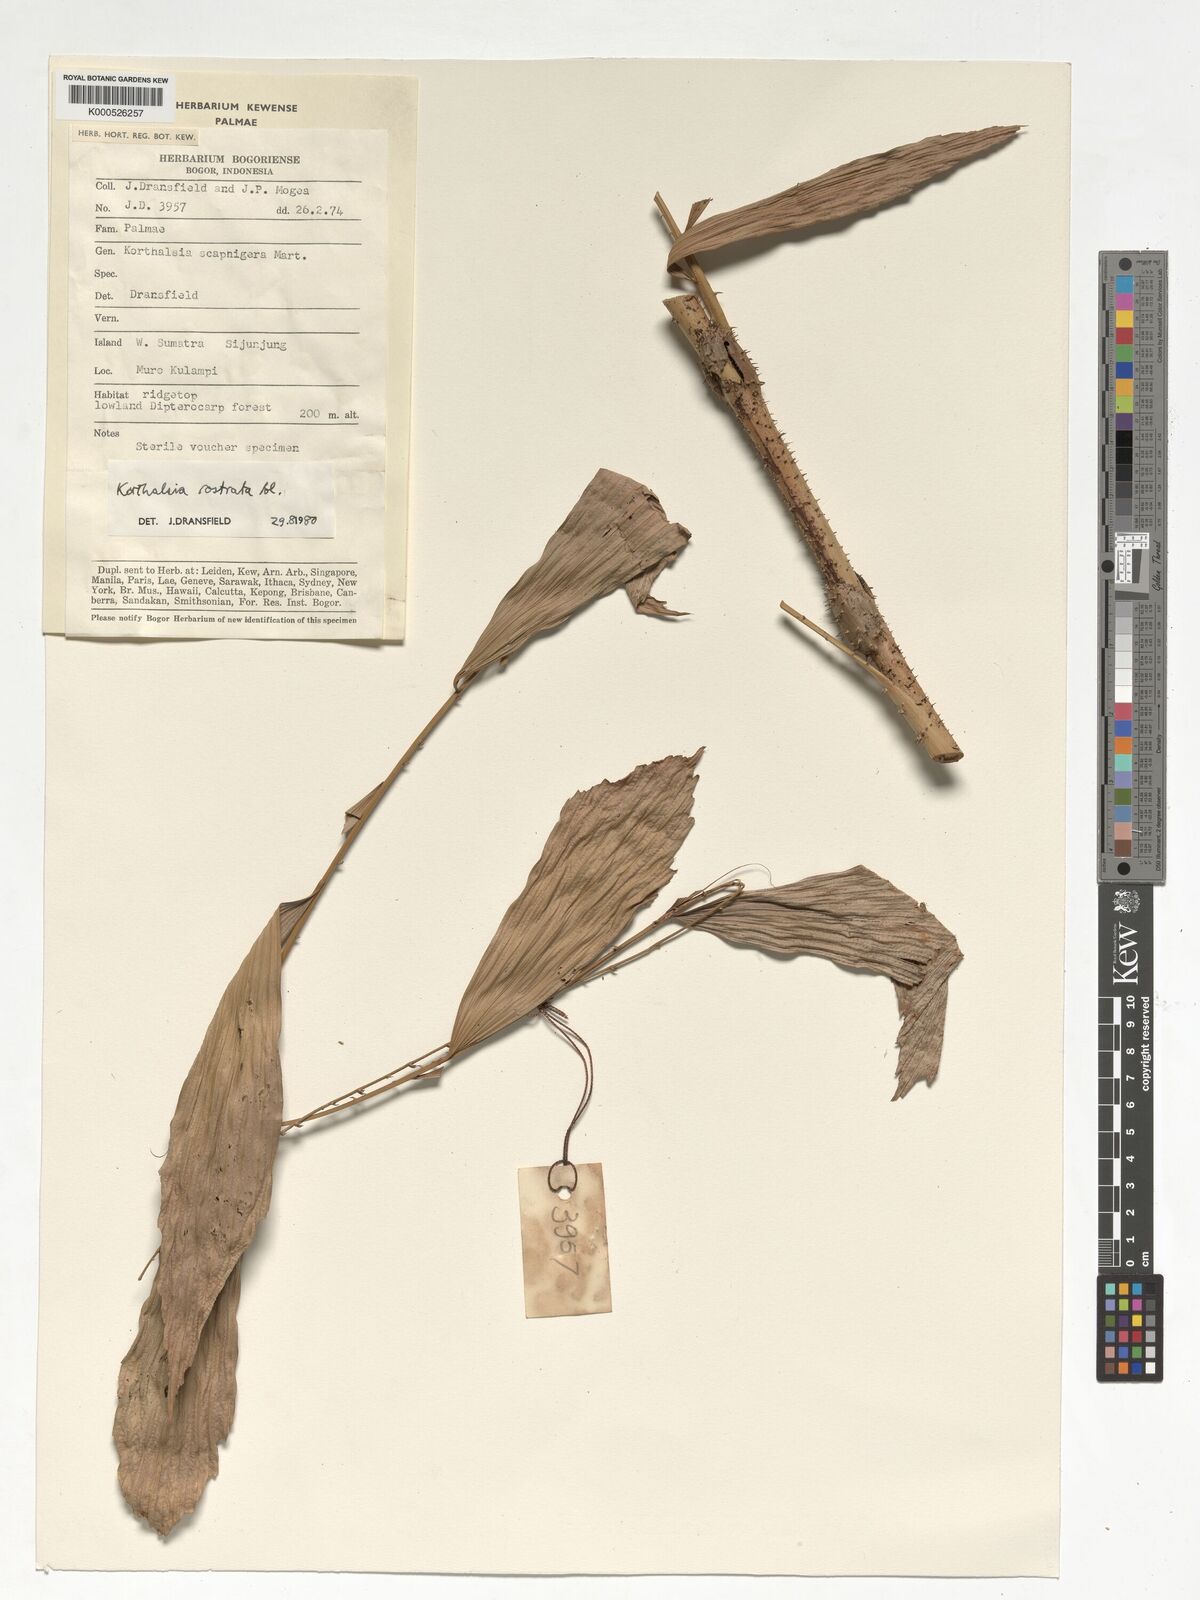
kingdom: Plantae
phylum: Tracheophyta
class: Liliopsida
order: Arecales
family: Arecaceae
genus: Korthalsia
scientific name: Korthalsia rostrata
